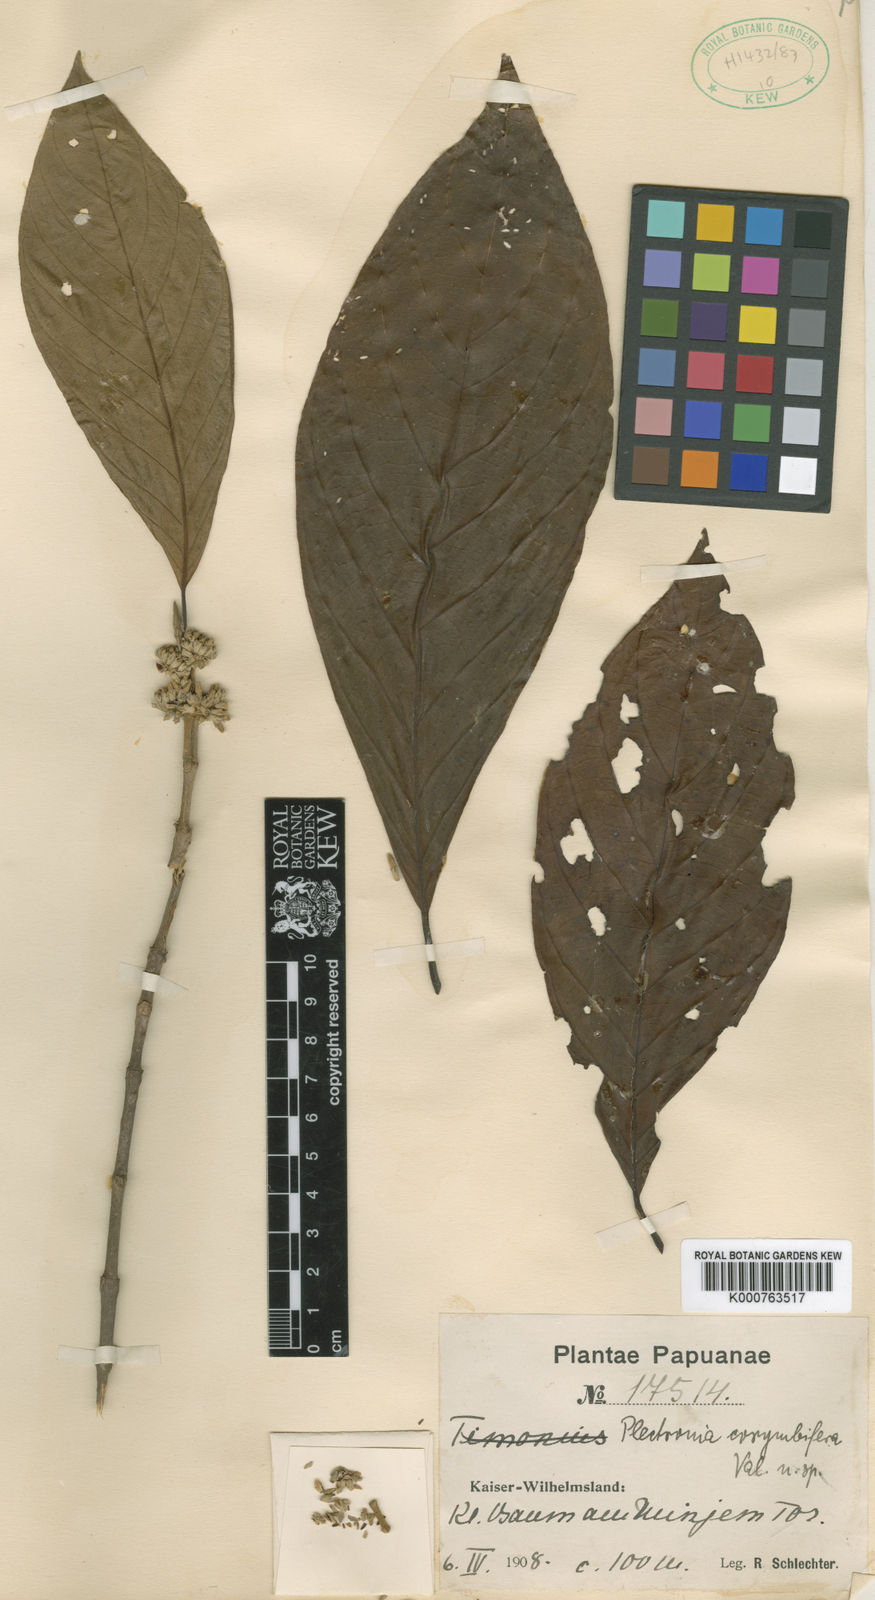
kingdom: Plantae
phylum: Tracheophyta
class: Magnoliopsida
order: Gentianales
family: Rubiaceae
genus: Timonius
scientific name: Timonius
